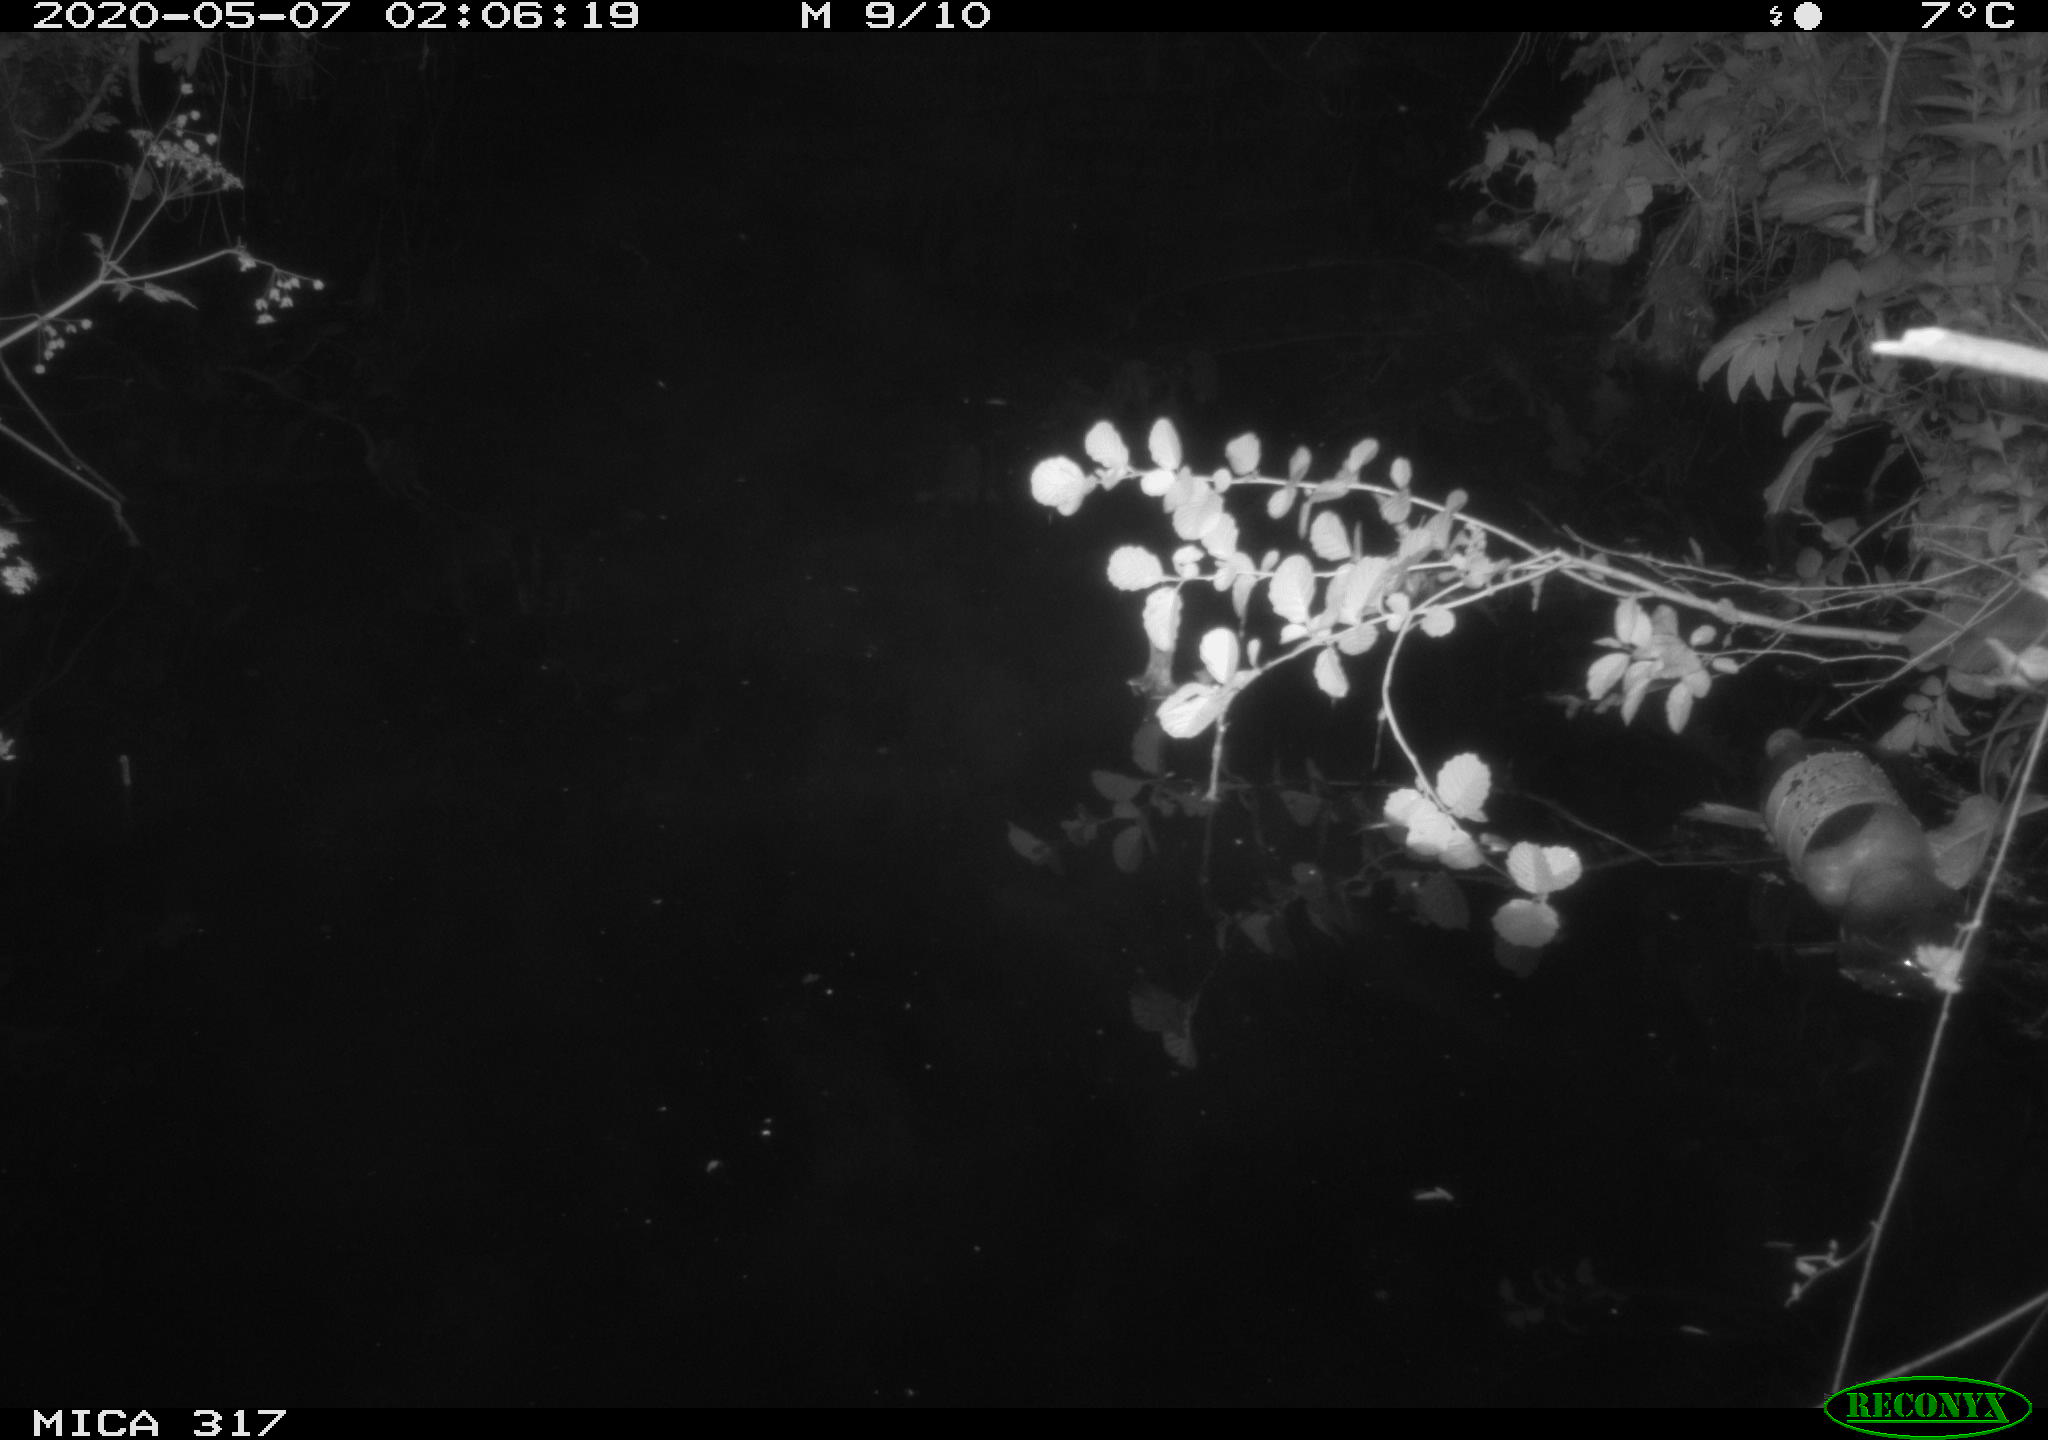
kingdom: Animalia
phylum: Chordata
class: Aves
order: Anseriformes
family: Anatidae
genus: Anas
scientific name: Anas platyrhynchos
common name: Mallard
